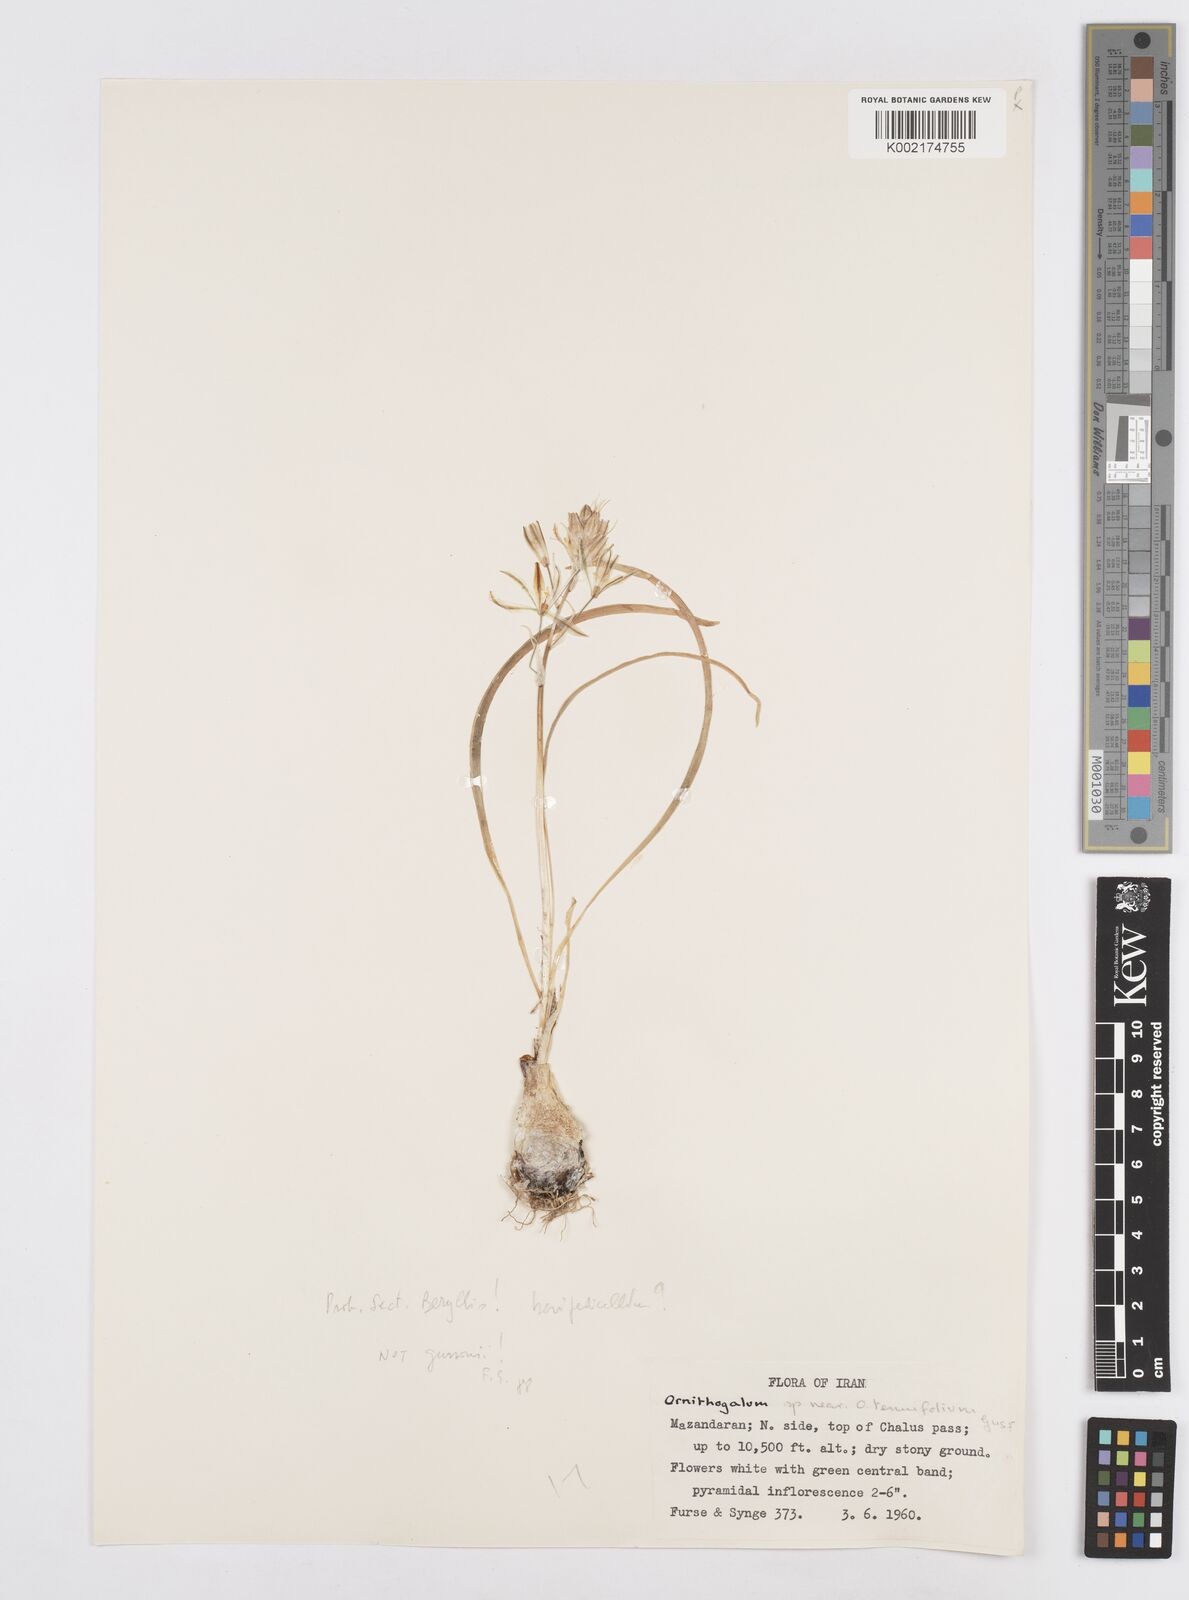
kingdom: Plantae
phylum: Tracheophyta
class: Liliopsida
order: Asparagales
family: Asparagaceae
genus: Ornithogalum
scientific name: Ornithogalum
